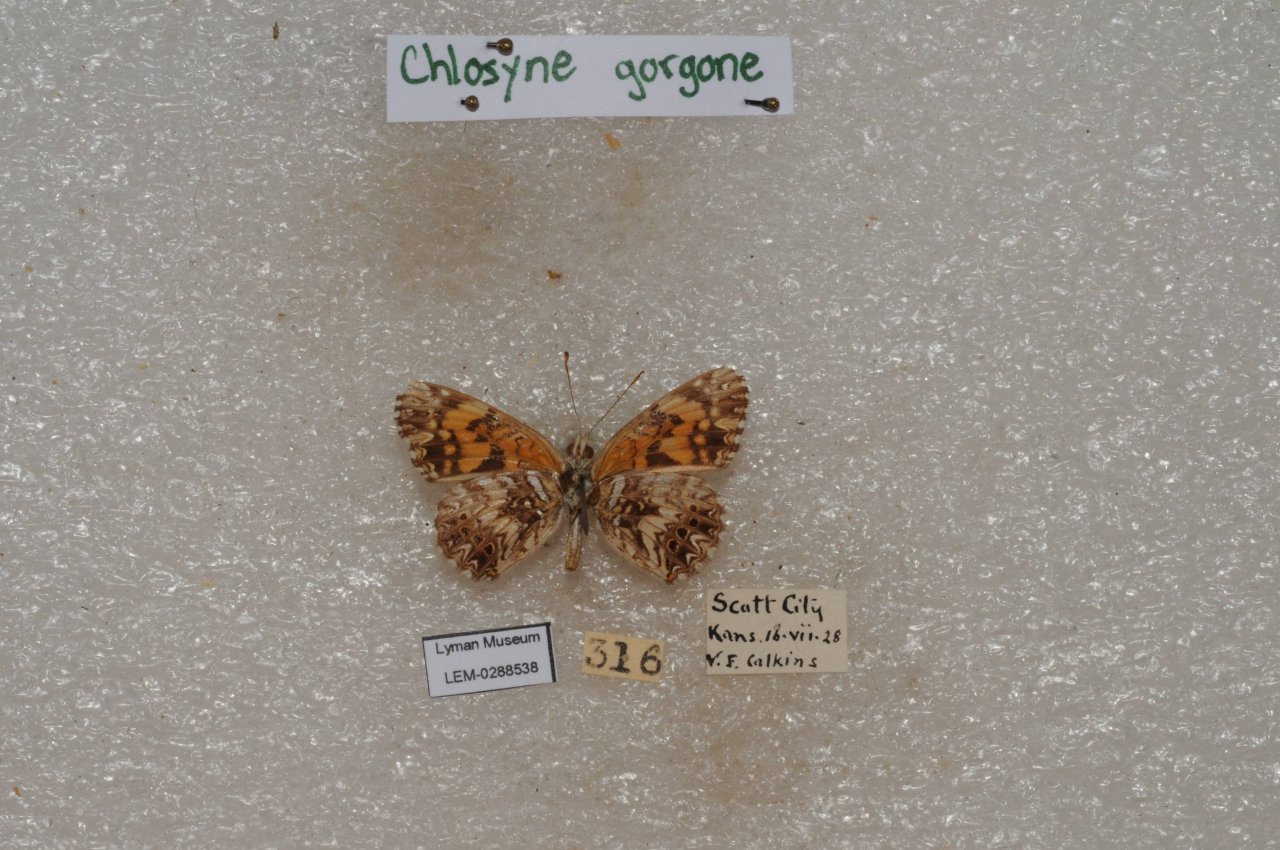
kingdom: Animalia
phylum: Arthropoda
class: Insecta
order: Lepidoptera
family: Nymphalidae
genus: Chlosyne
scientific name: Chlosyne gorgone
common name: Gorgone Checkerspot
